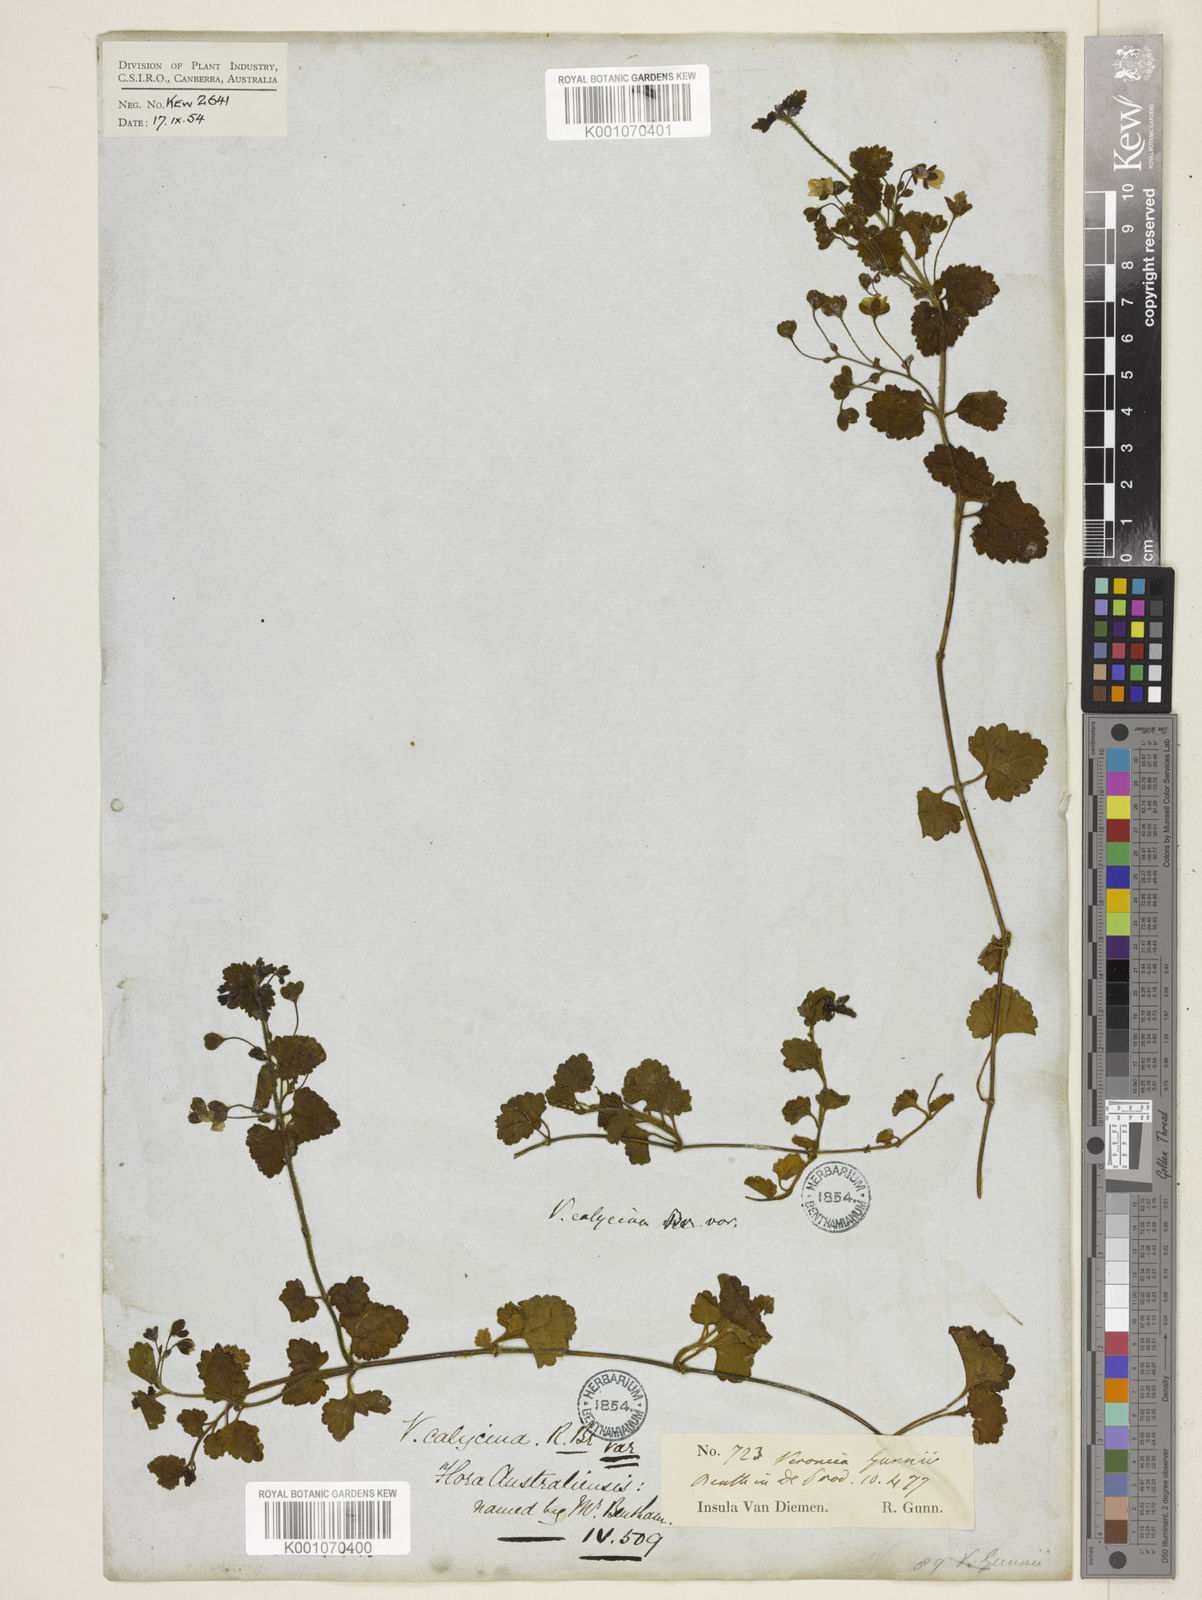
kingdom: Plantae
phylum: Tracheophyta
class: Magnoliopsida
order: Lamiales
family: Plantaginaceae
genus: Veronica
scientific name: Veronica calycina
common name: Cup speedwell
